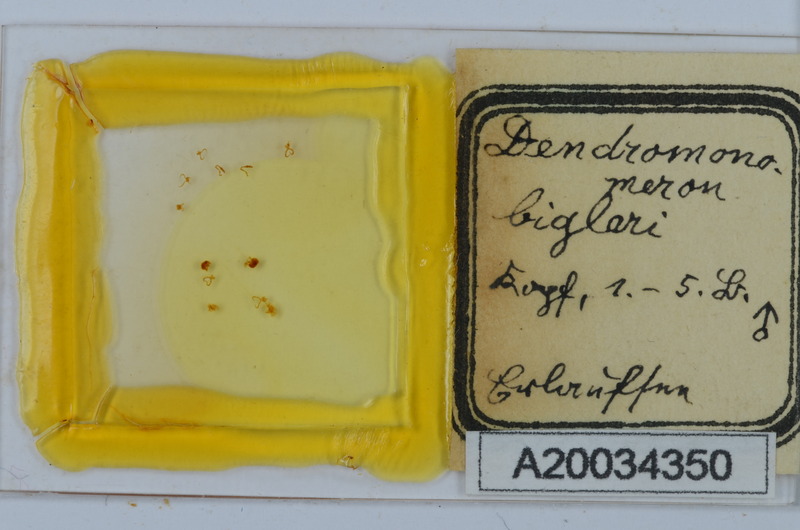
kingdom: Animalia
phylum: Arthropoda
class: Diplopoda
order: Chordeumatida
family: Attemsiidae
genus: Dendromonomeron
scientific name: Dendromonomeron lignivagum
